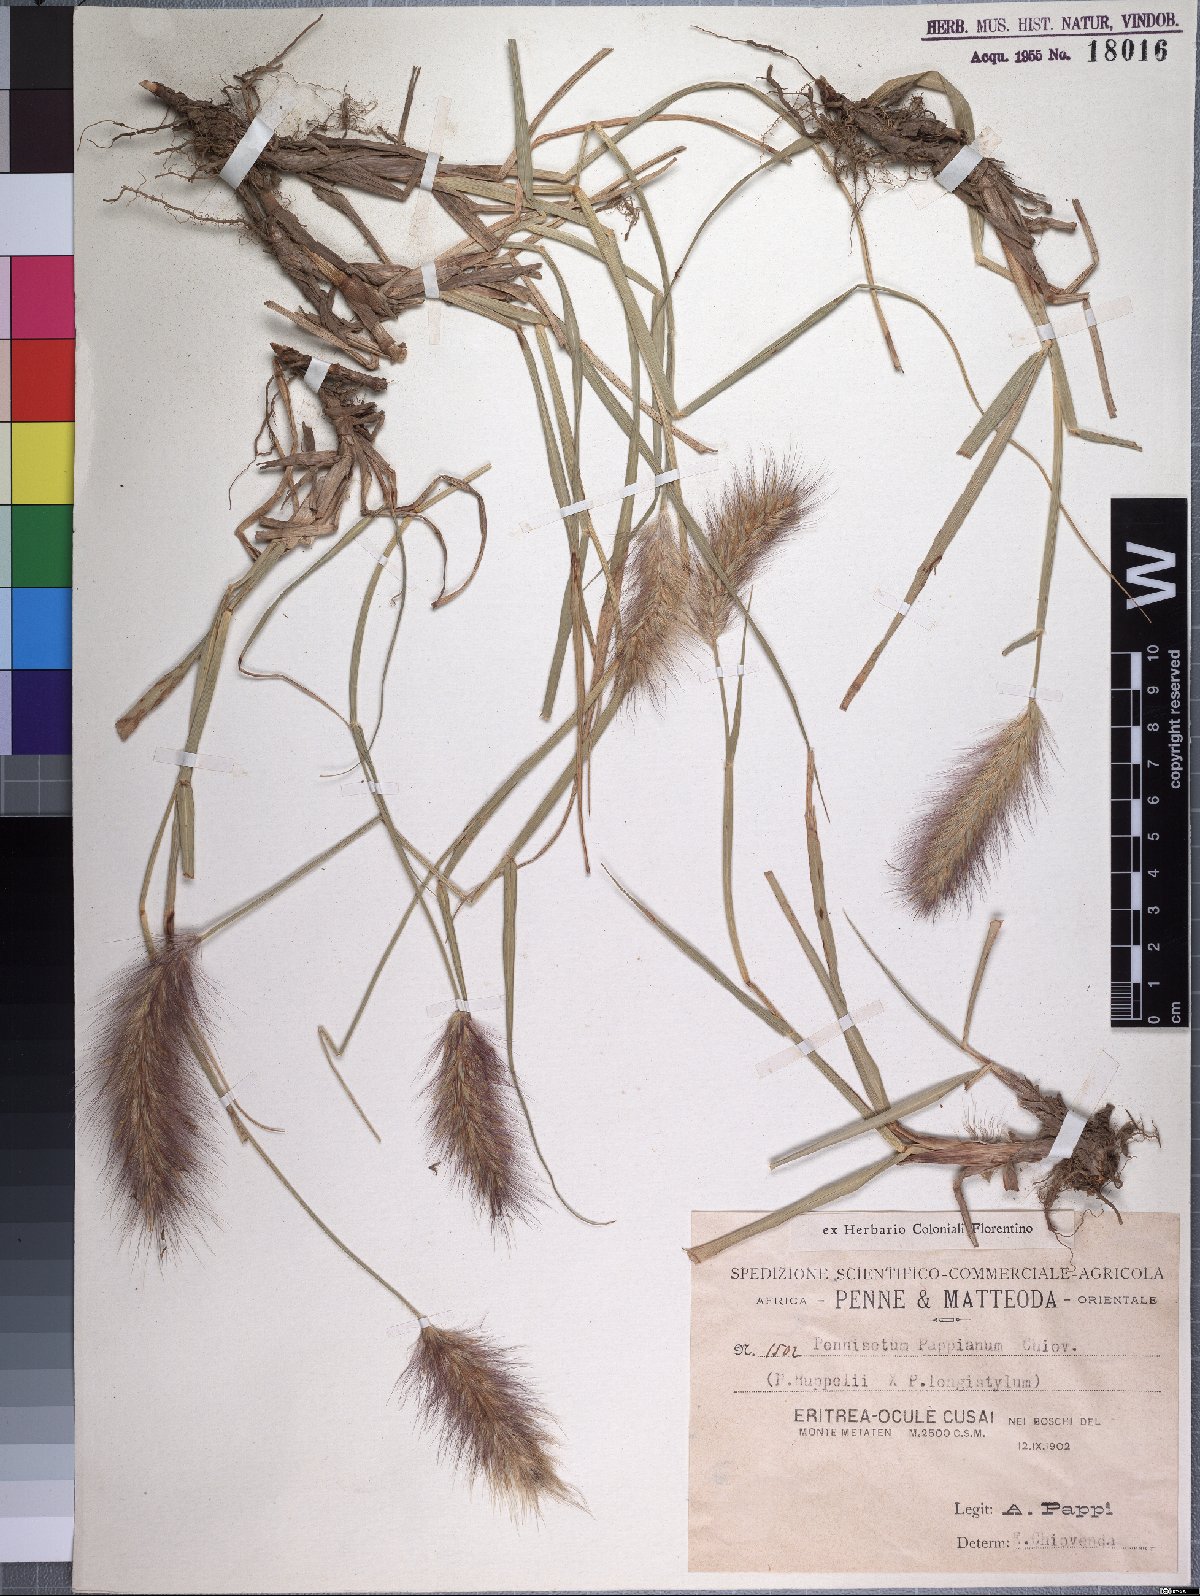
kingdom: Plantae
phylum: Tracheophyta
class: Liliopsida
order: Poales
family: Poaceae
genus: Cenchrus
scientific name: Cenchrus yemensis
